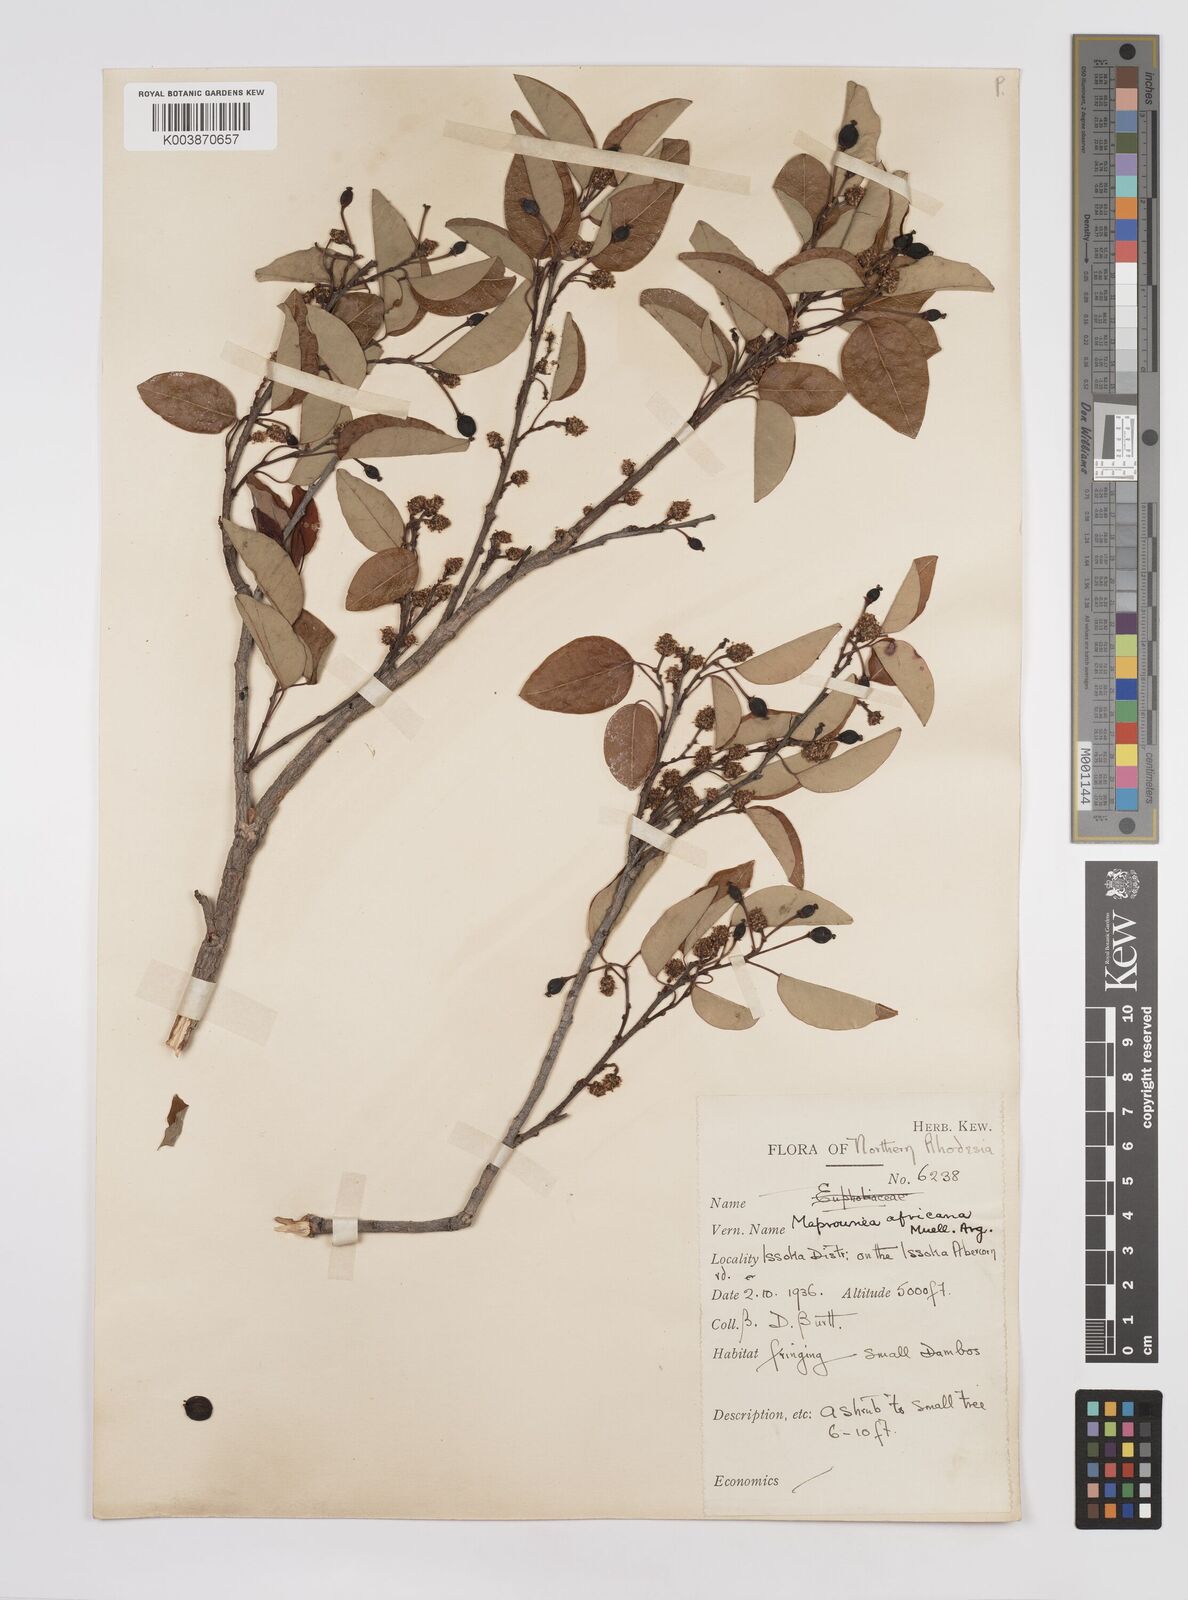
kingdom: Plantae
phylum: Tracheophyta
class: Magnoliopsida
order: Malpighiales
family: Euphorbiaceae
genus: Maprounea
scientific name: Maprounea africana
